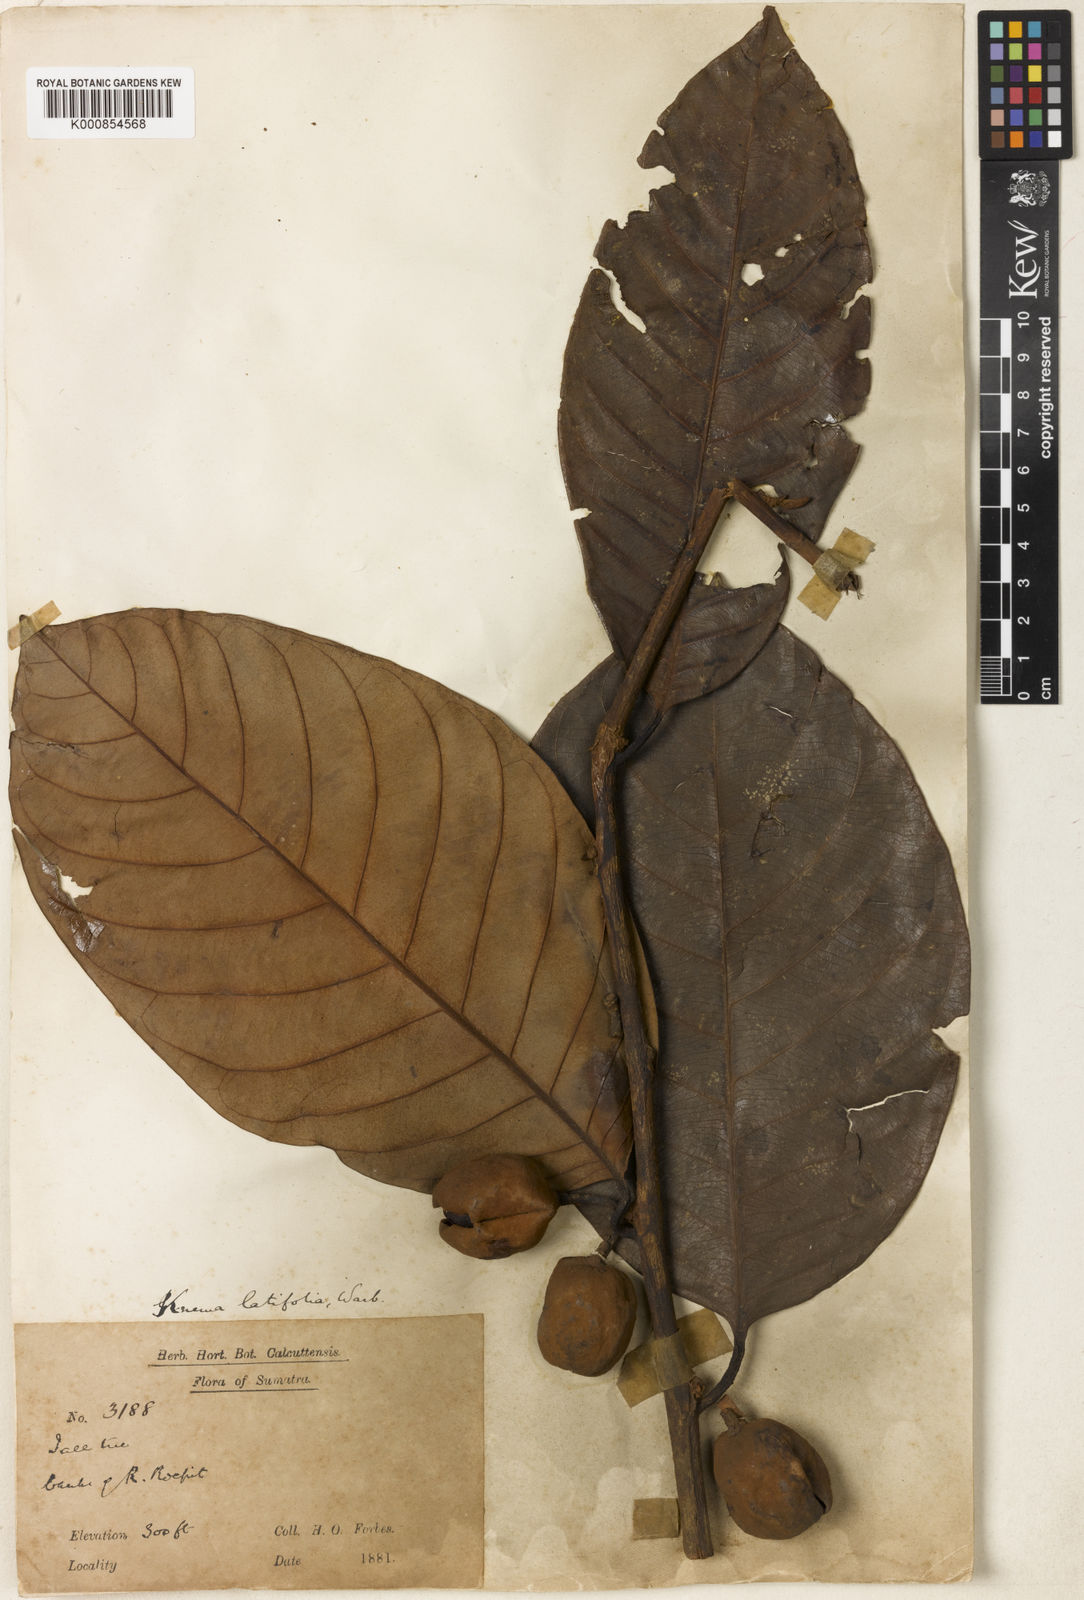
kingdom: Plantae
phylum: Tracheophyta
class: Magnoliopsida
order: Magnoliales
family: Myristicaceae
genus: Knema
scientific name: Knema latifolia
